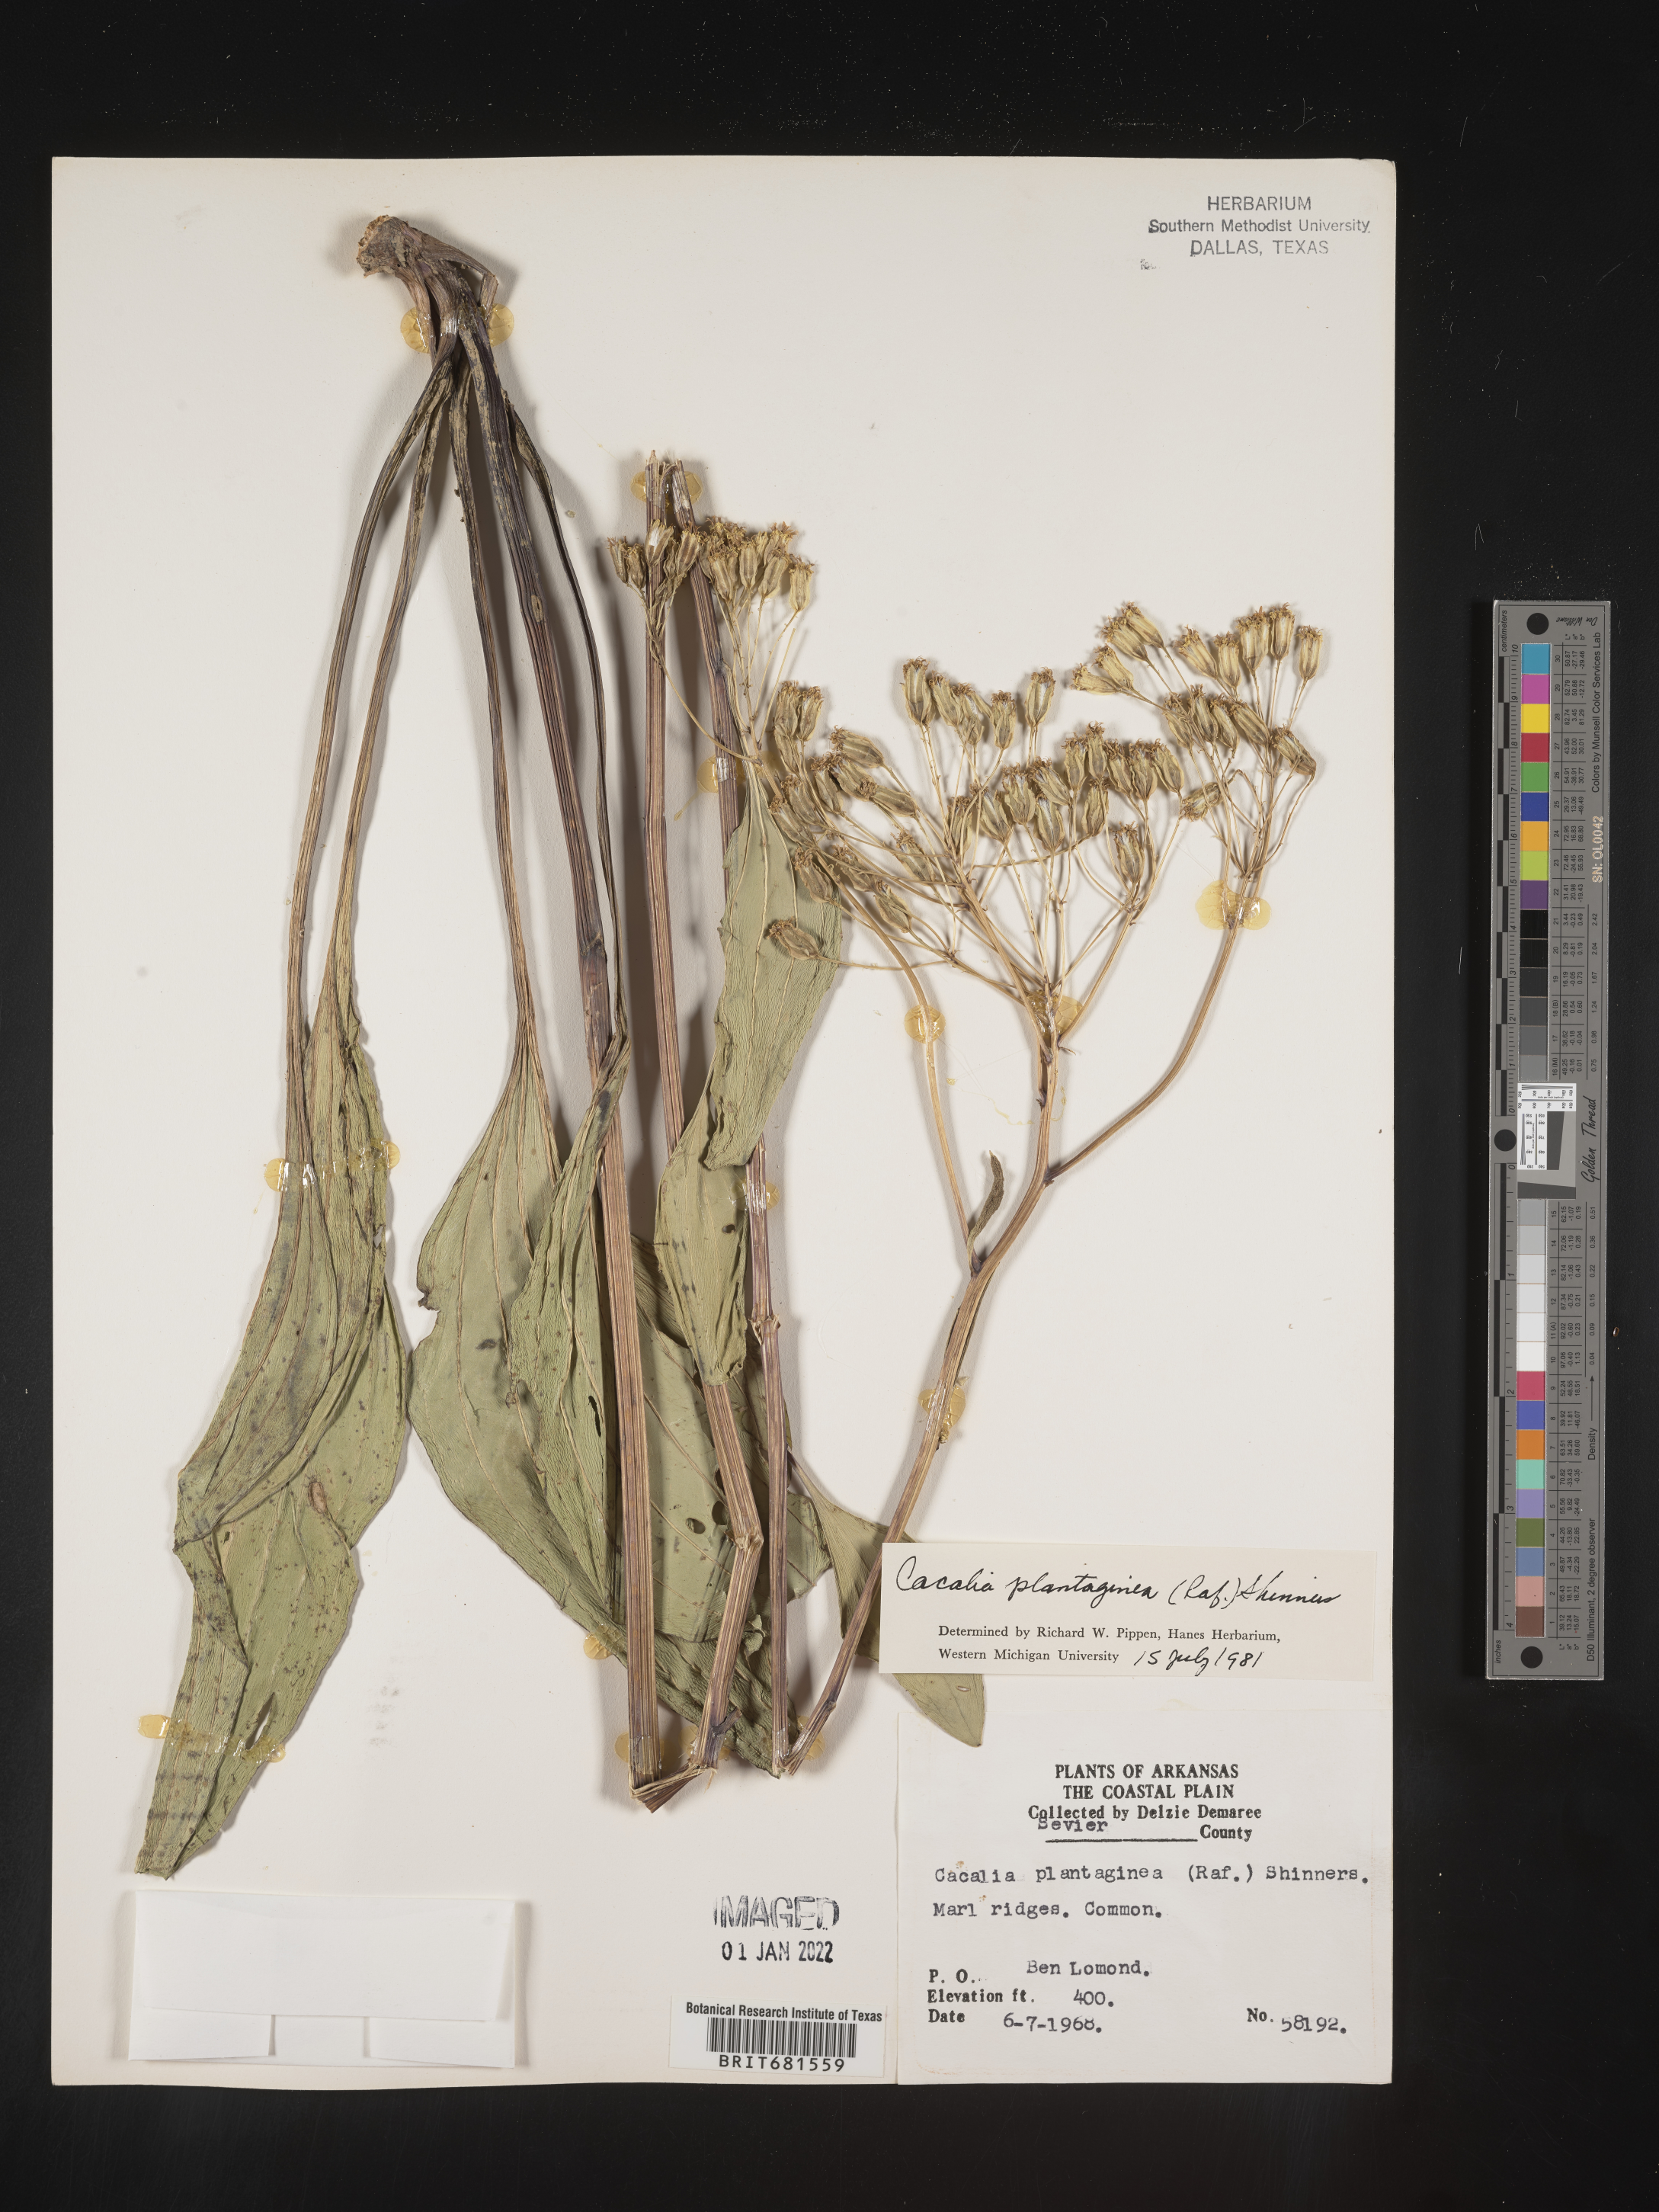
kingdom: Plantae
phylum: Tracheophyta
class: Magnoliopsida
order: Asterales
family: Asteraceae
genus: Arnoglossum
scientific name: Arnoglossum plantagineum
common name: Groove-stemmed indian-plantain
